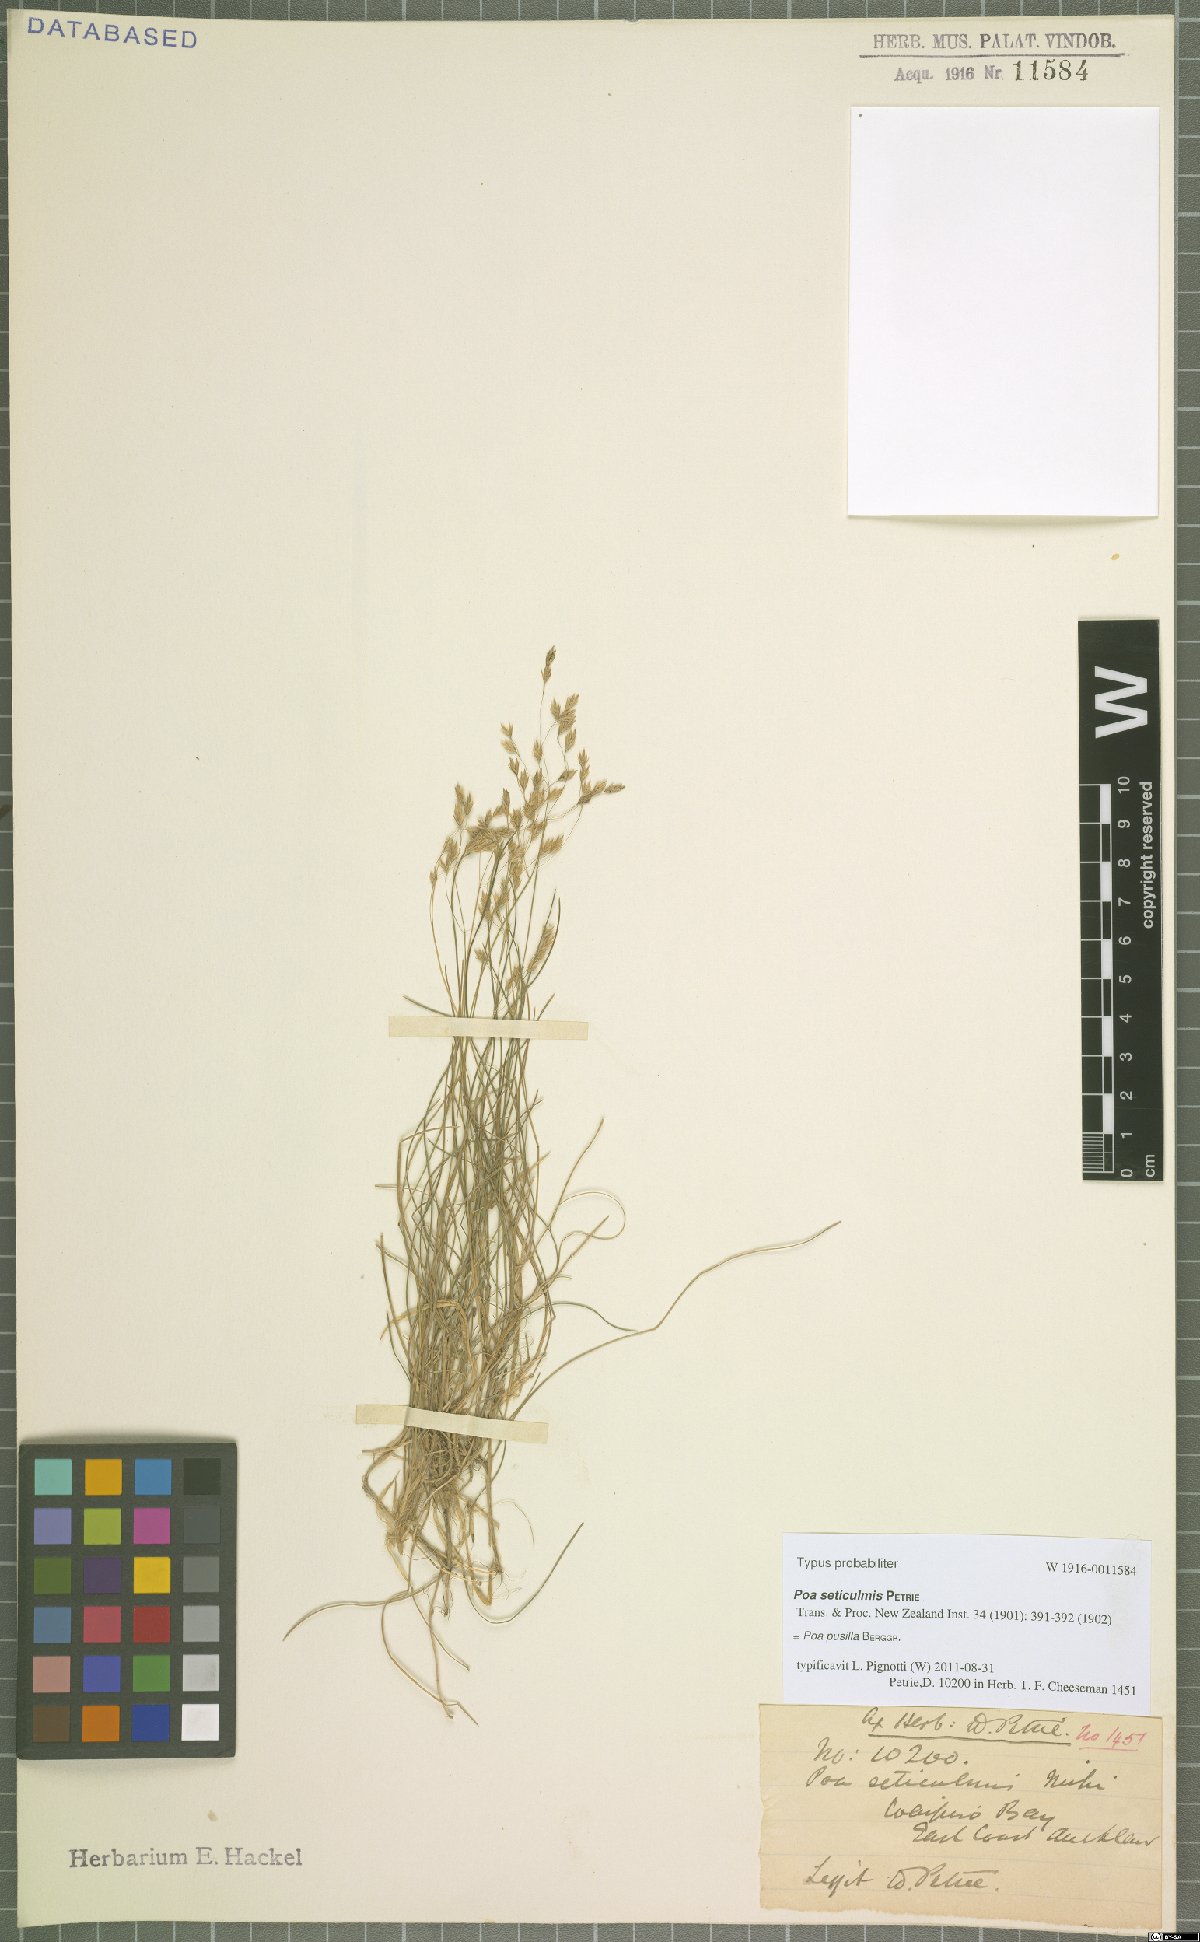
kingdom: Plantae
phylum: Tracheophyta
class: Liliopsida
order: Poales
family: Poaceae
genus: Poa
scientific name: Poa pusilla
